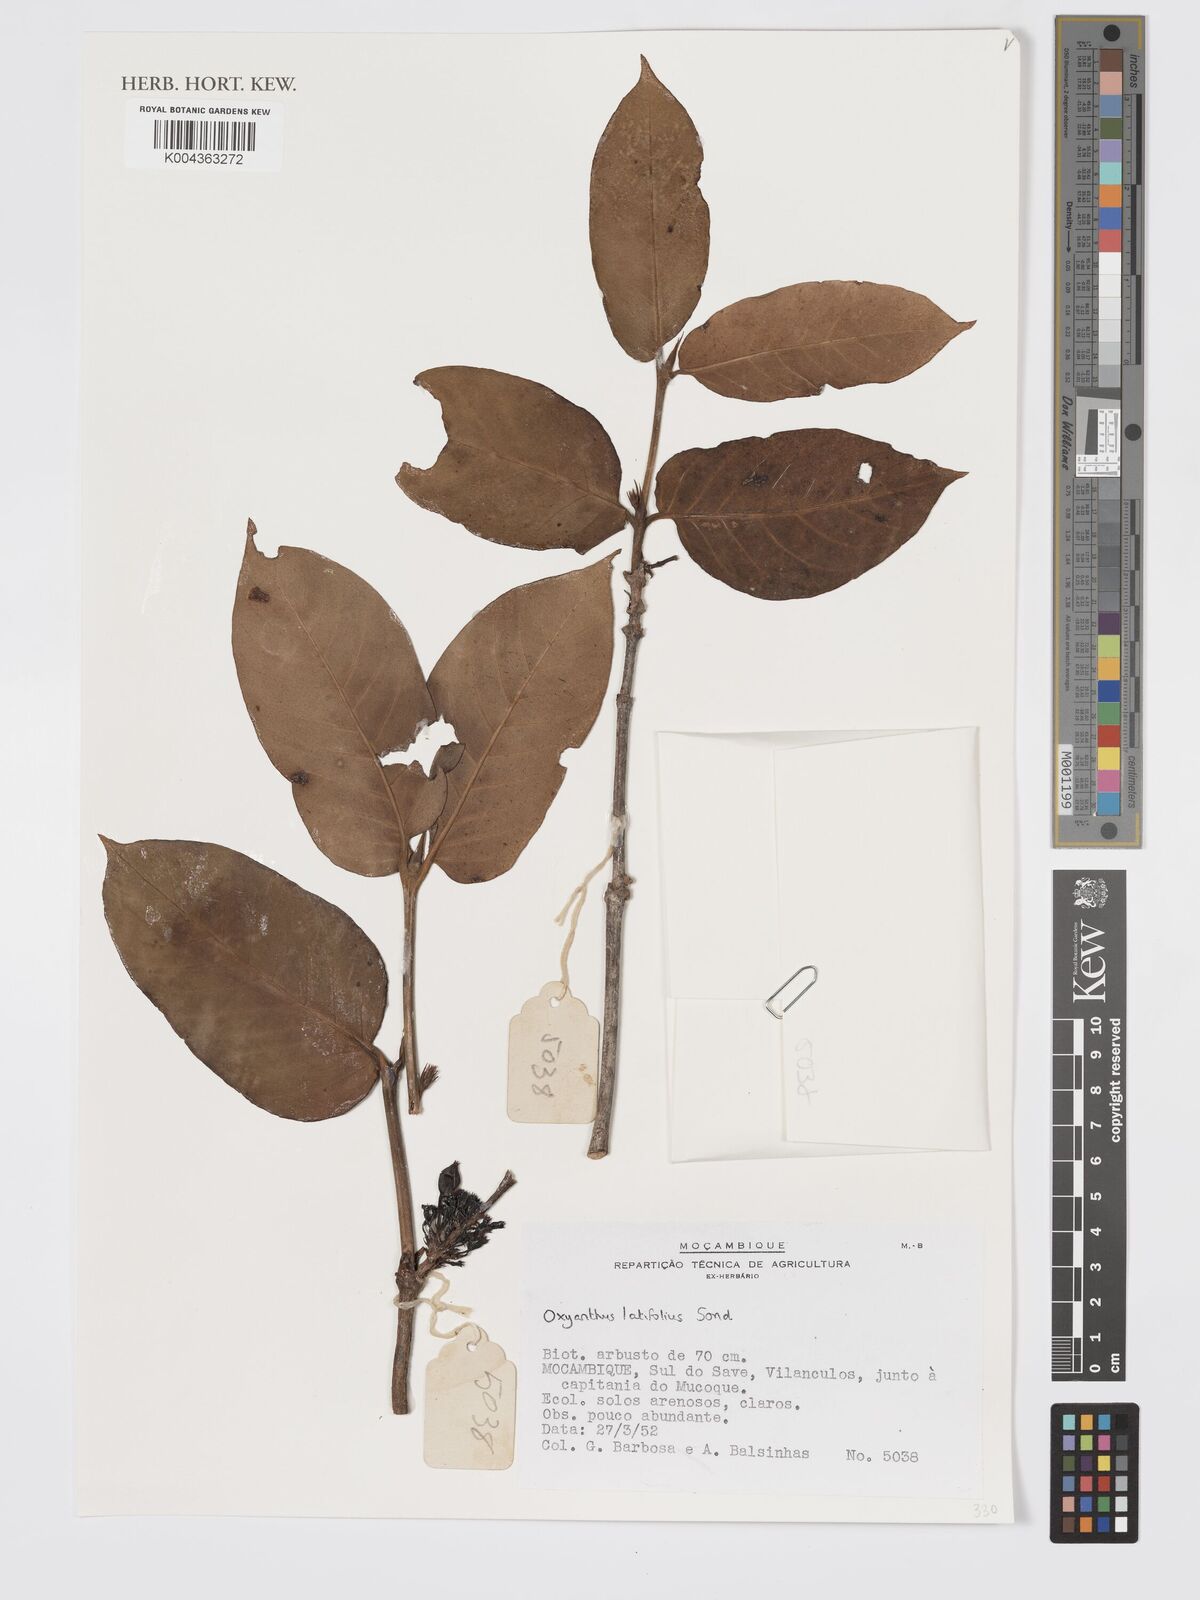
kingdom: Plantae
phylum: Tracheophyta
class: Magnoliopsida
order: Gentianales
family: Rubiaceae
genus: Oxyanthus
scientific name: Oxyanthus latifolius
